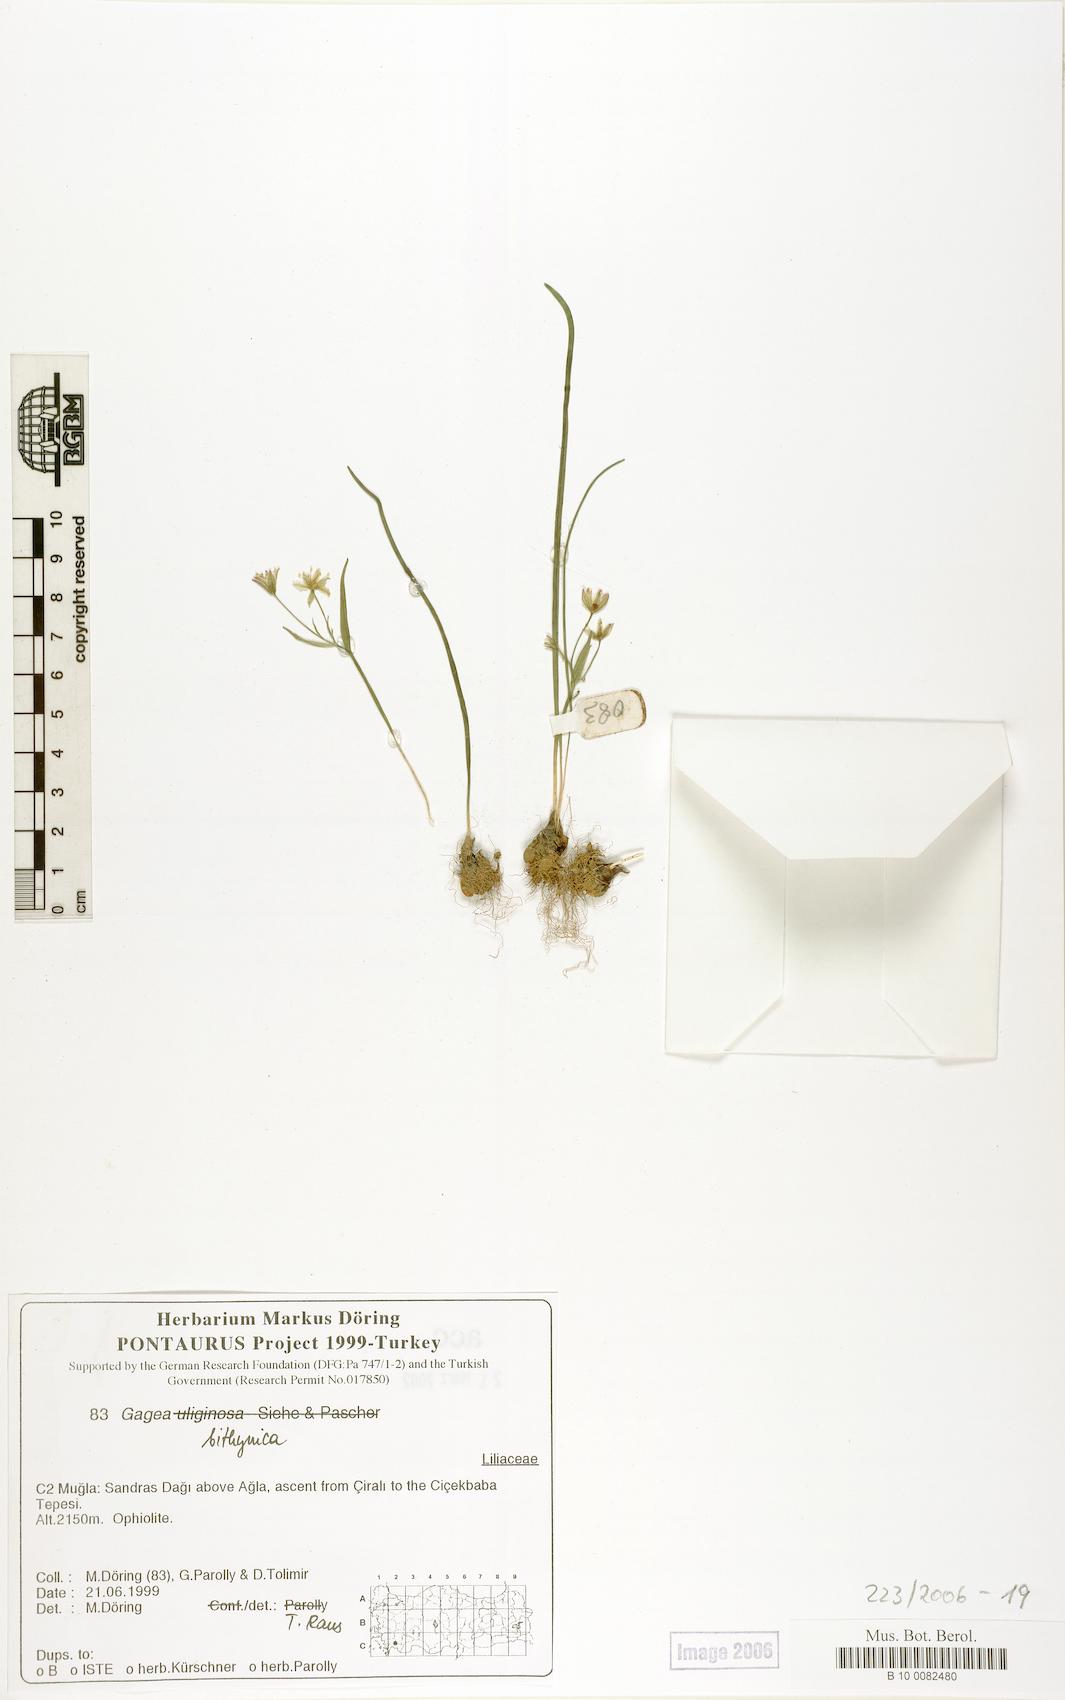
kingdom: Plantae
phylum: Tracheophyta
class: Liliopsida
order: Liliales
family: Liliaceae
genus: Gagea
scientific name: Gagea bithynica
